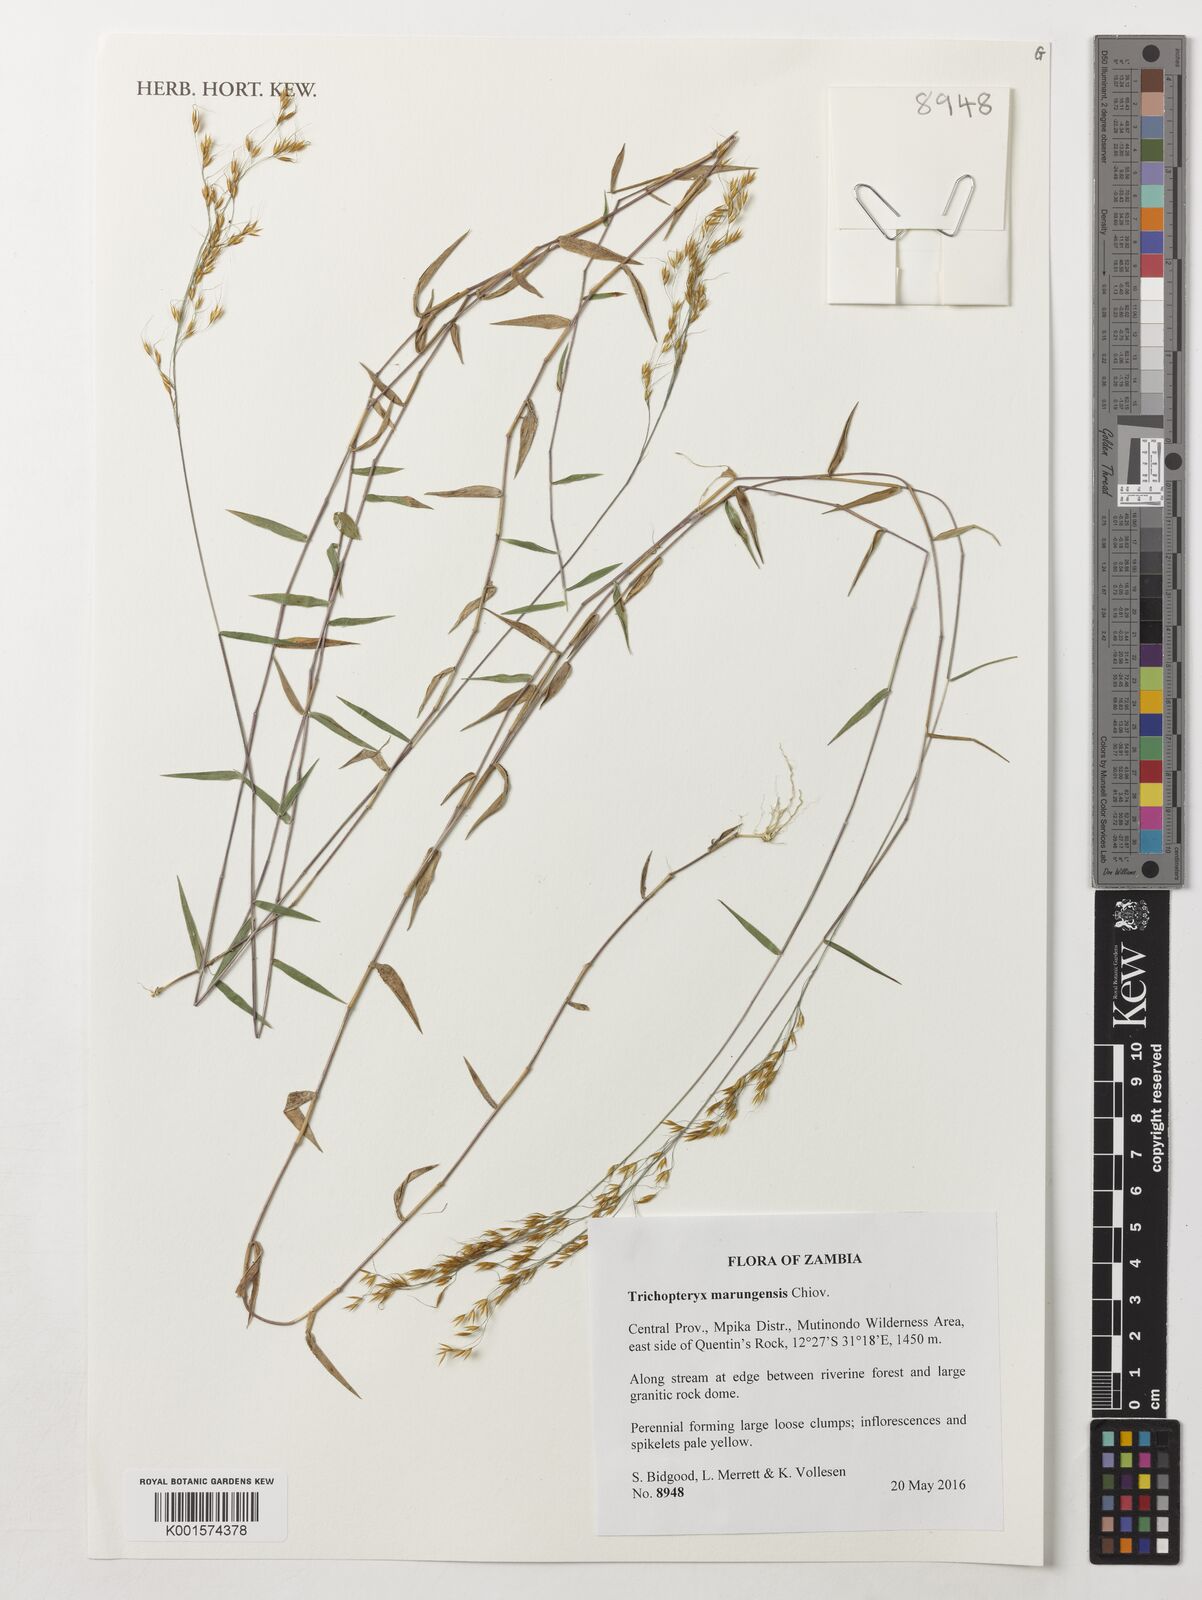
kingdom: Plantae
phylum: Tracheophyta
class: Liliopsida
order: Poales
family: Poaceae
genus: Trichopteryx
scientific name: Trichopteryx marungensis
